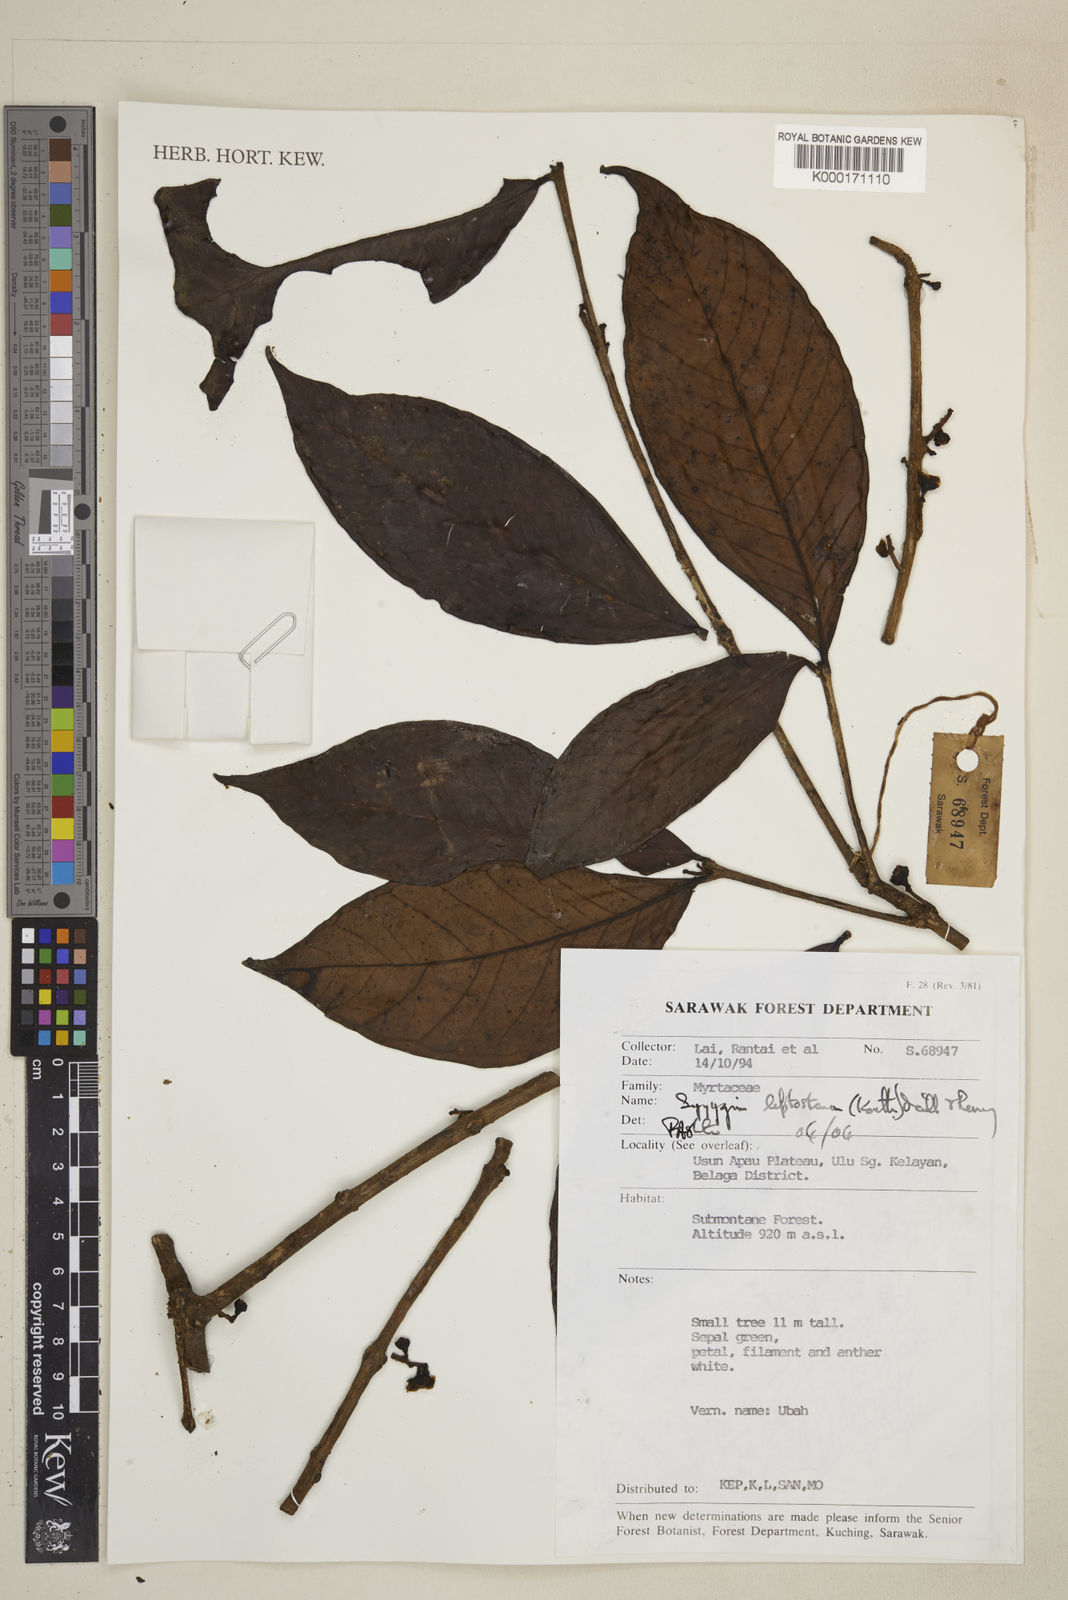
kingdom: Plantae
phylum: Tracheophyta
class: Magnoliopsida
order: Myrtales
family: Myrtaceae
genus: Syzygium
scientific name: Syzygium
